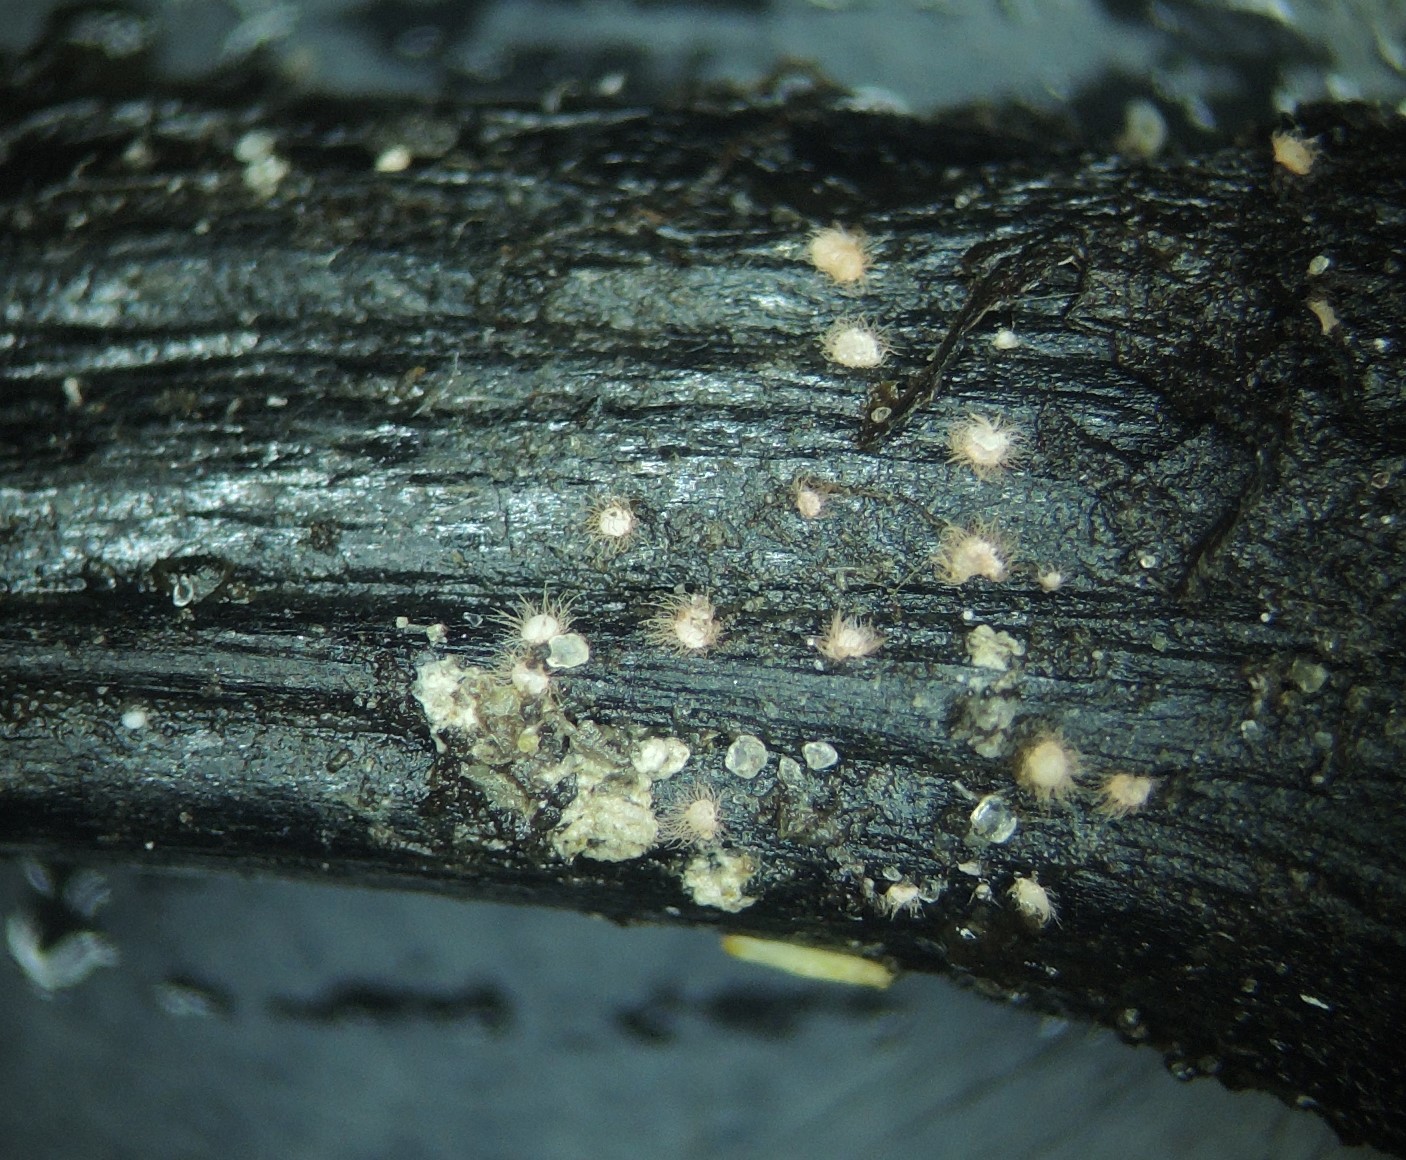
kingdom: Fungi
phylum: Ascomycota
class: Sordariomycetes
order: Hypocreales
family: Nectriaceae
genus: Volutella
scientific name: Volutella
